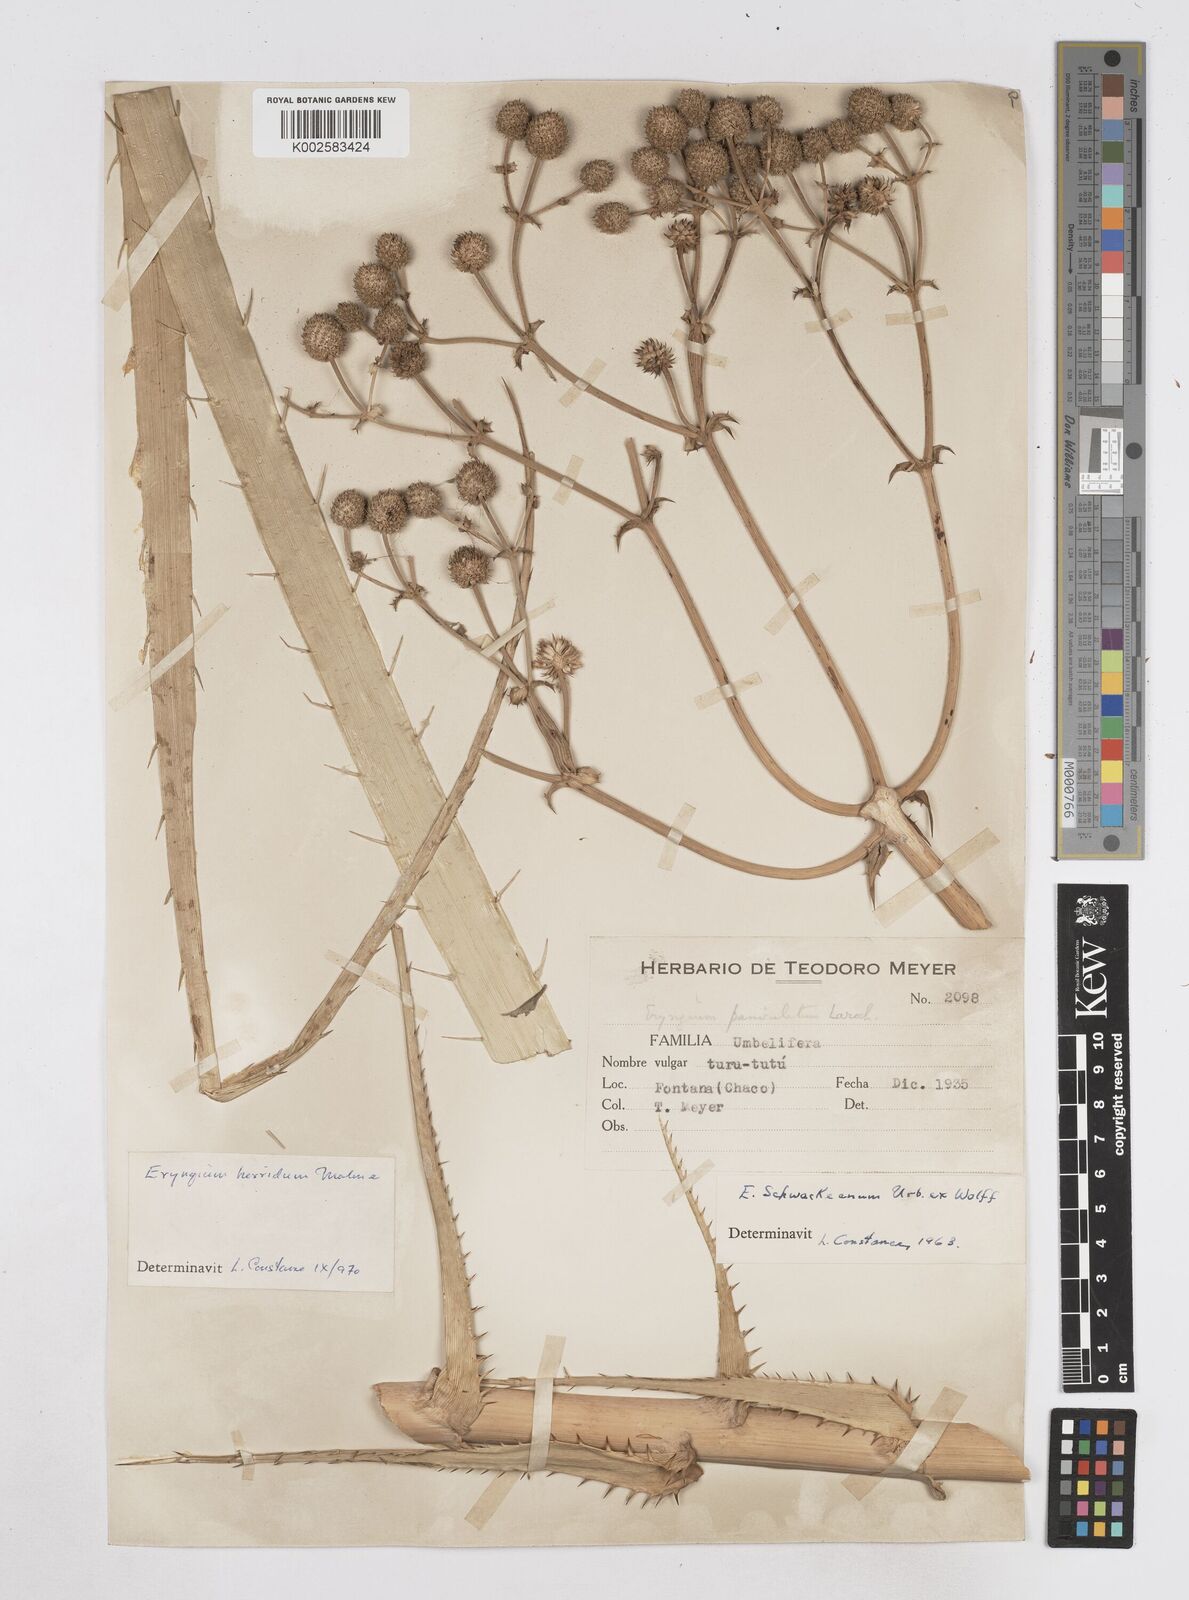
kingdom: Plantae
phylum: Tracheophyta
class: Magnoliopsida
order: Apiales
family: Apiaceae
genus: Eryngium
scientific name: Eryngium humboldtii
